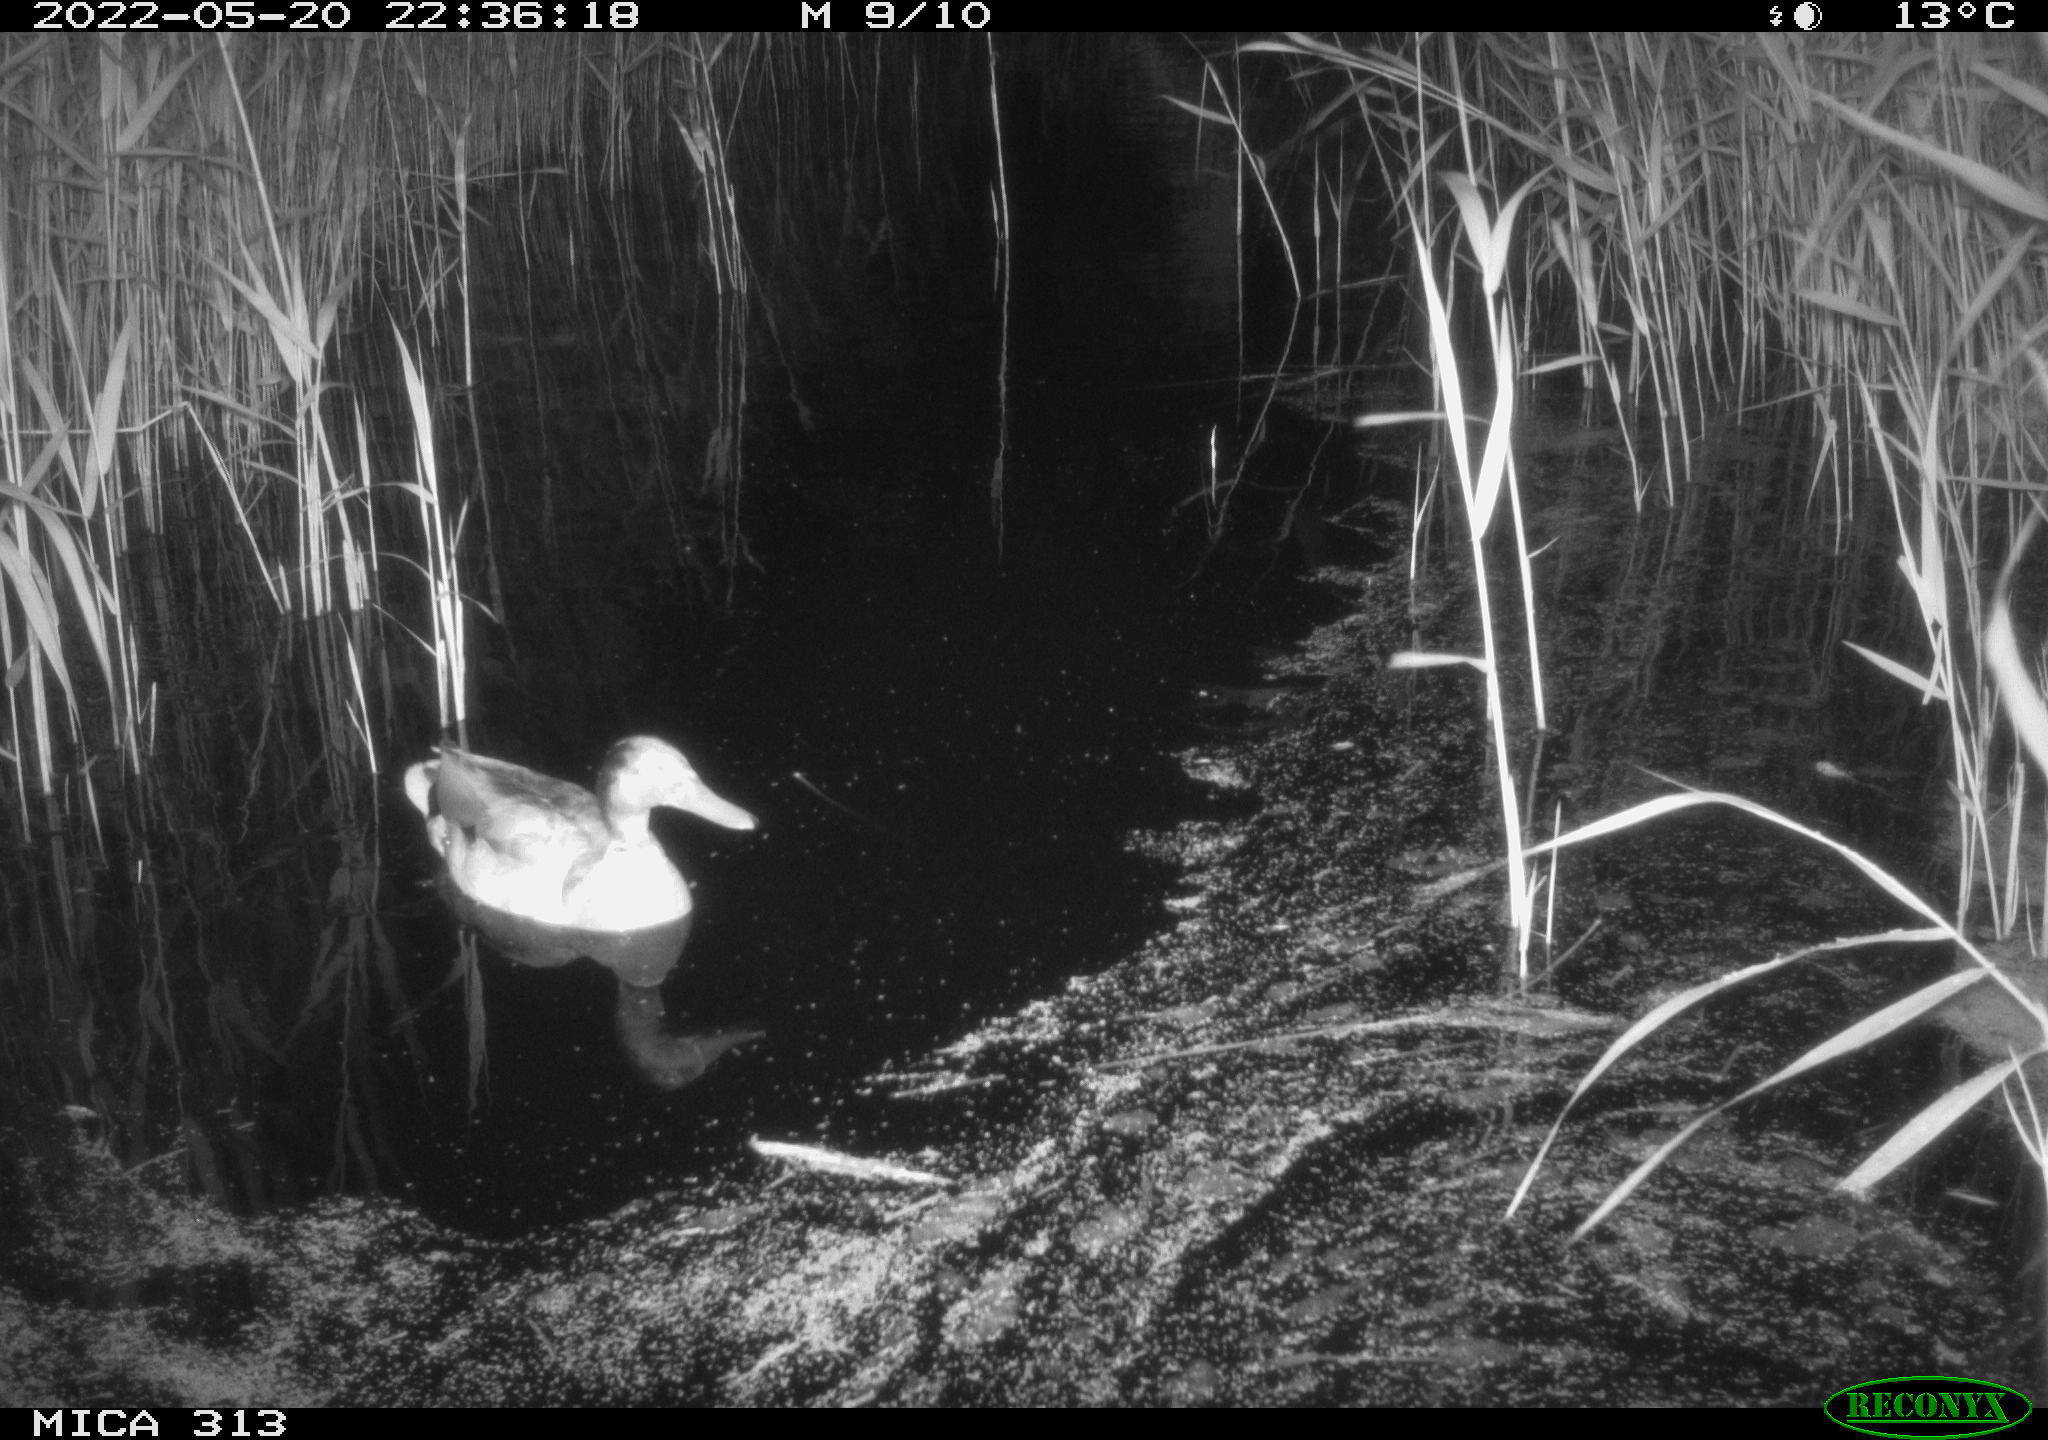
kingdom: Animalia
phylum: Chordata
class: Aves
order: Anseriformes
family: Anatidae
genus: Anas
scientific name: Anas platyrhynchos
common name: Mallard
